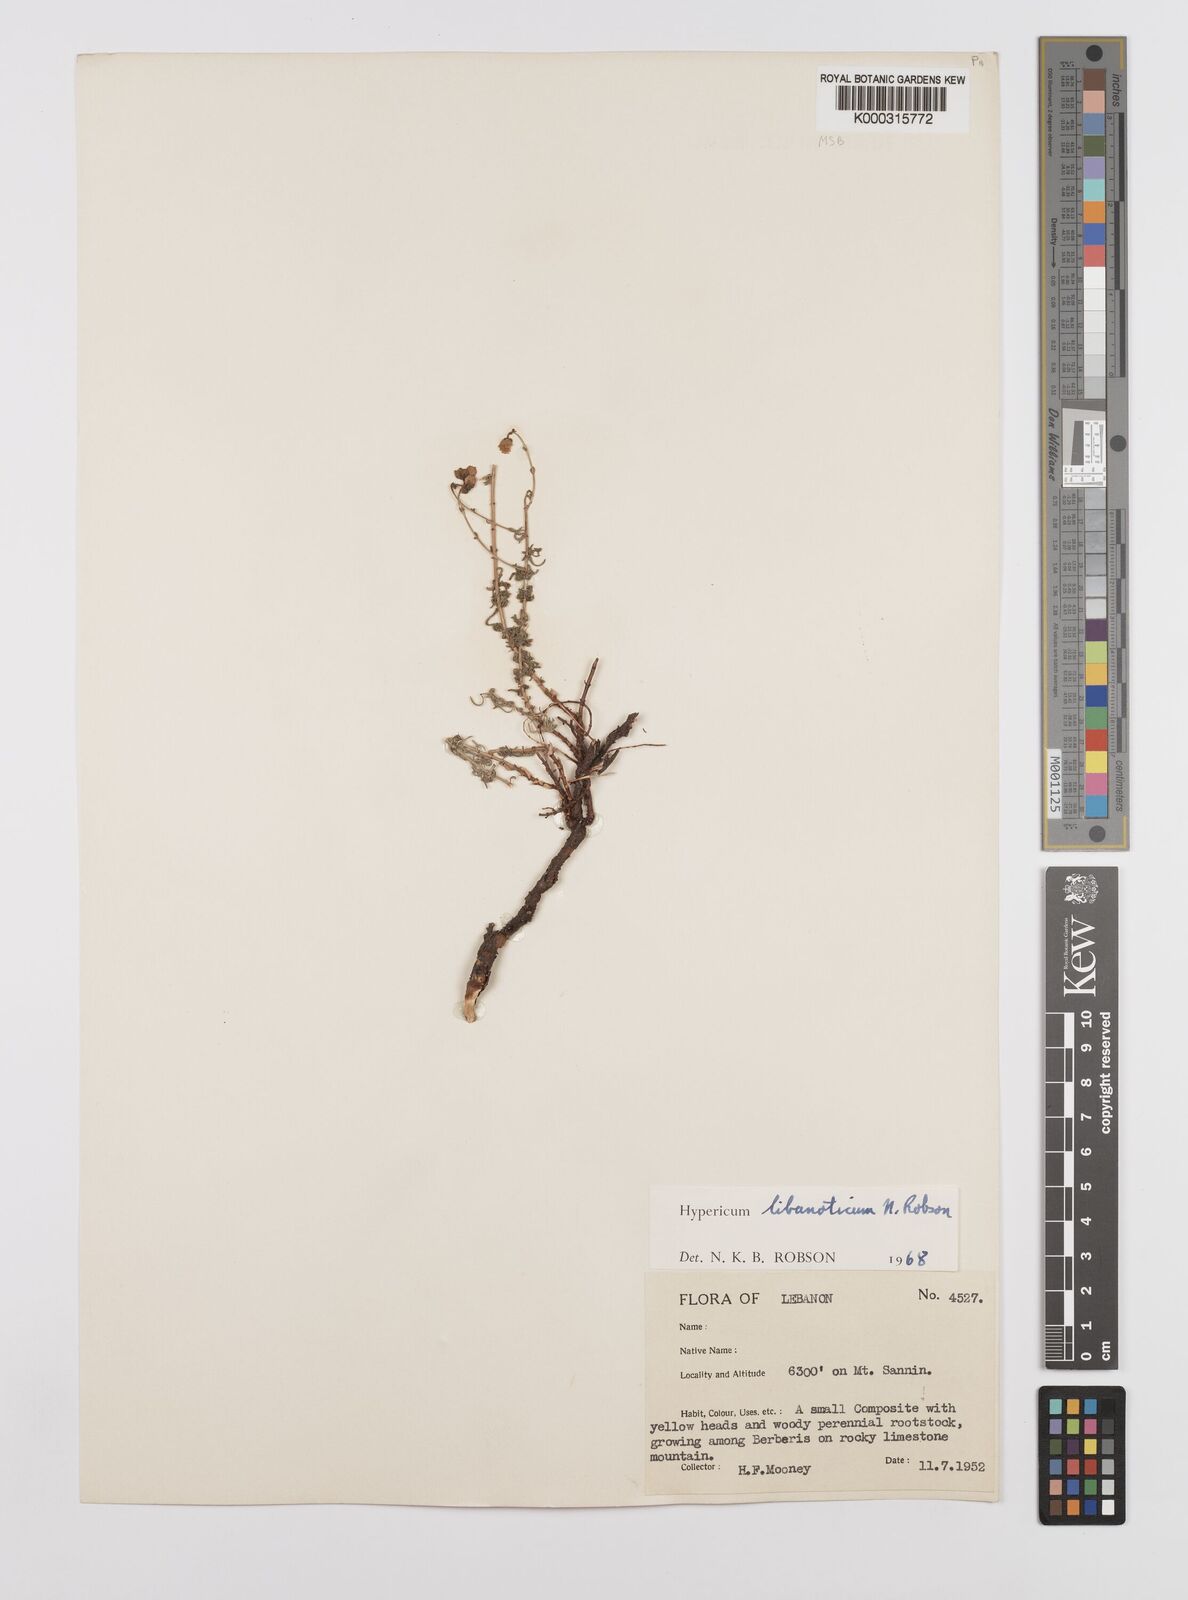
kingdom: Plantae
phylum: Tracheophyta
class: Magnoliopsida
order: Malpighiales
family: Hypericaceae
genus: Hypericum
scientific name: Hypericum libanoticum
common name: Lebanon saint john’s wort
